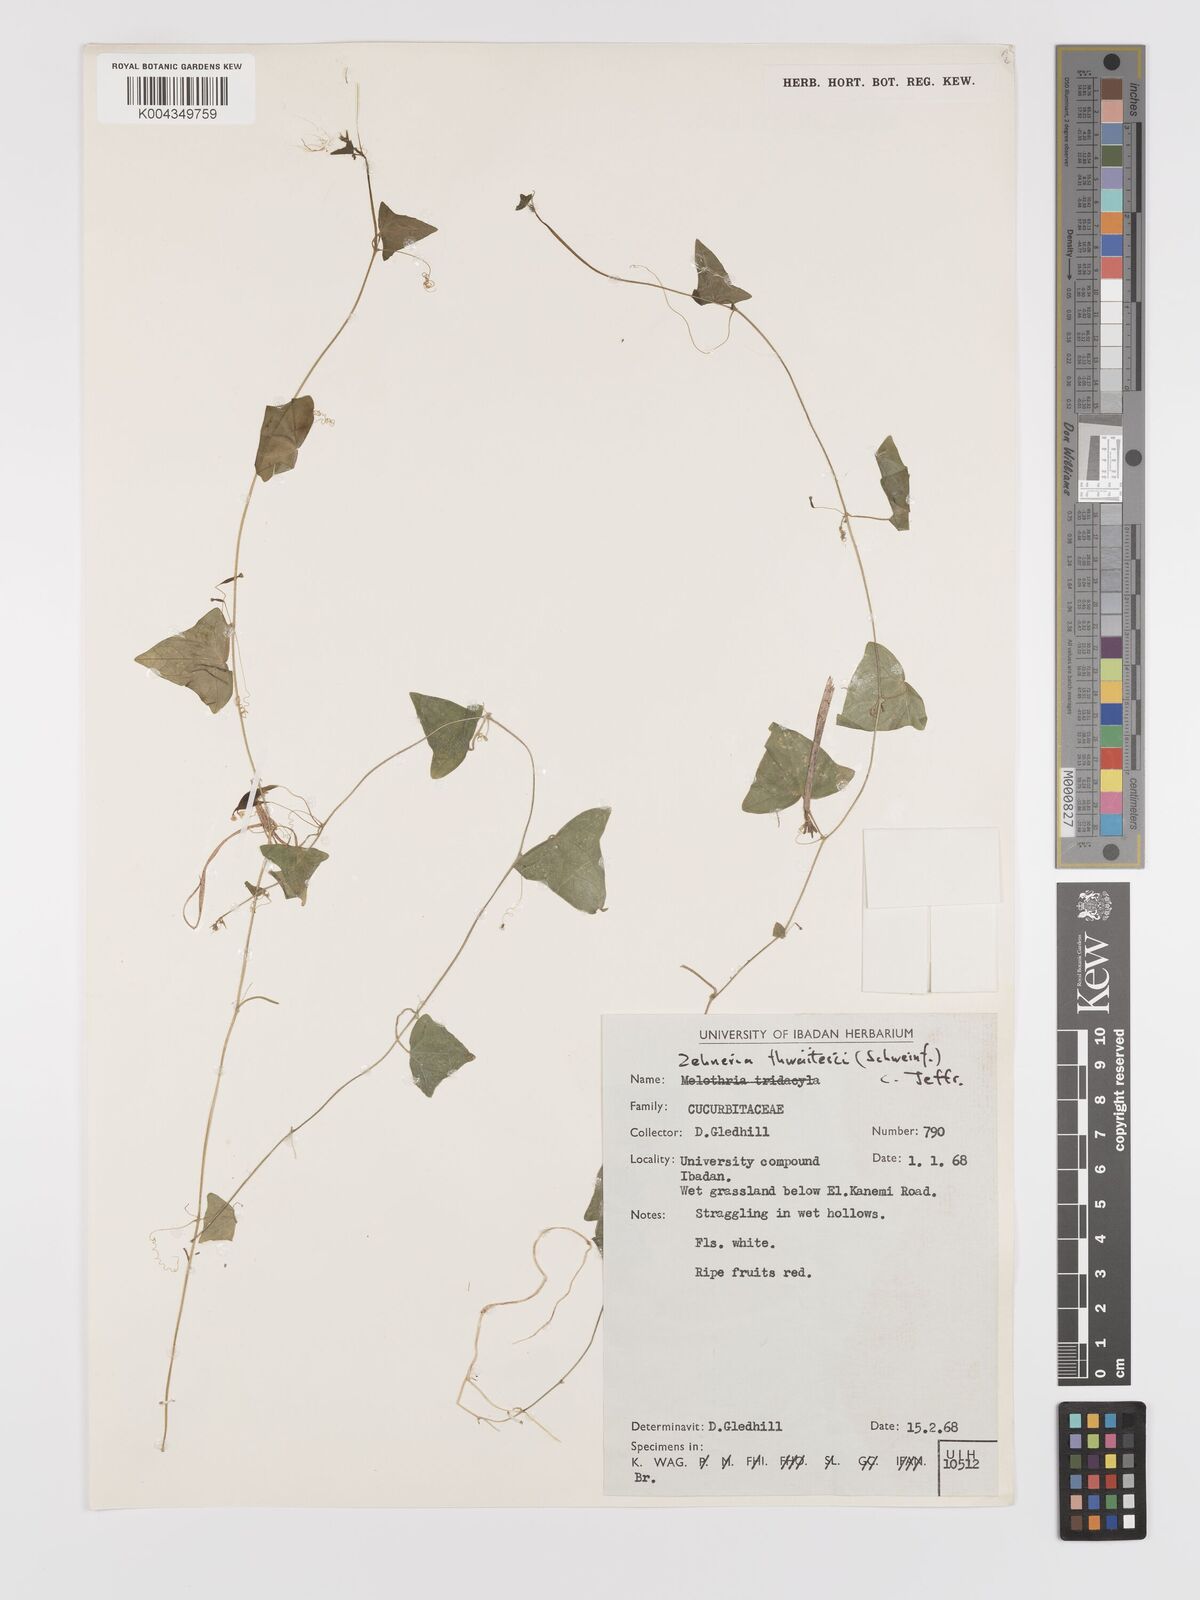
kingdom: Plantae
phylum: Tracheophyta
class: Magnoliopsida
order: Cucurbitales
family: Cucurbitaceae
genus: Zehneria
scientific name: Zehneria thwaitesii
